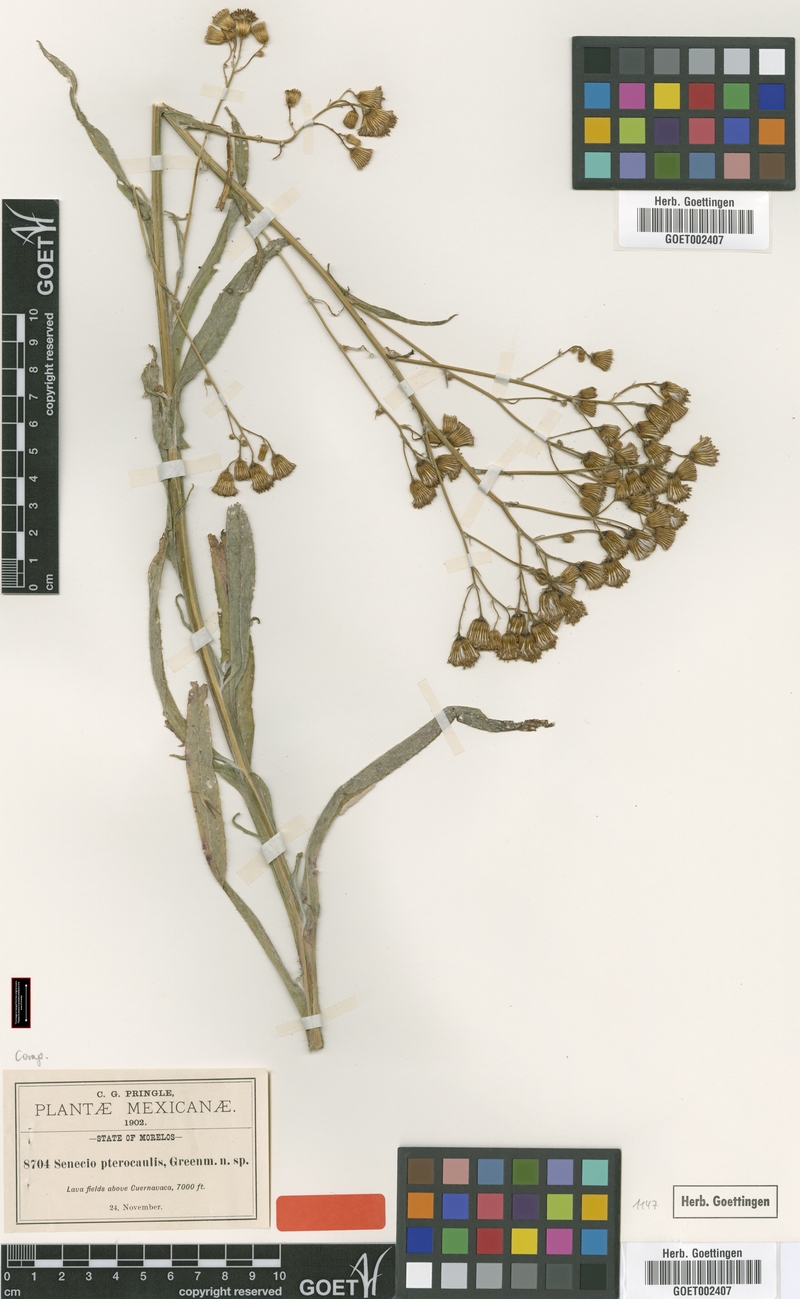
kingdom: Plantae
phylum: Tracheophyta
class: Magnoliopsida
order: Asterales
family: Asteraceae
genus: Packera
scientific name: Packera werneriifolia
